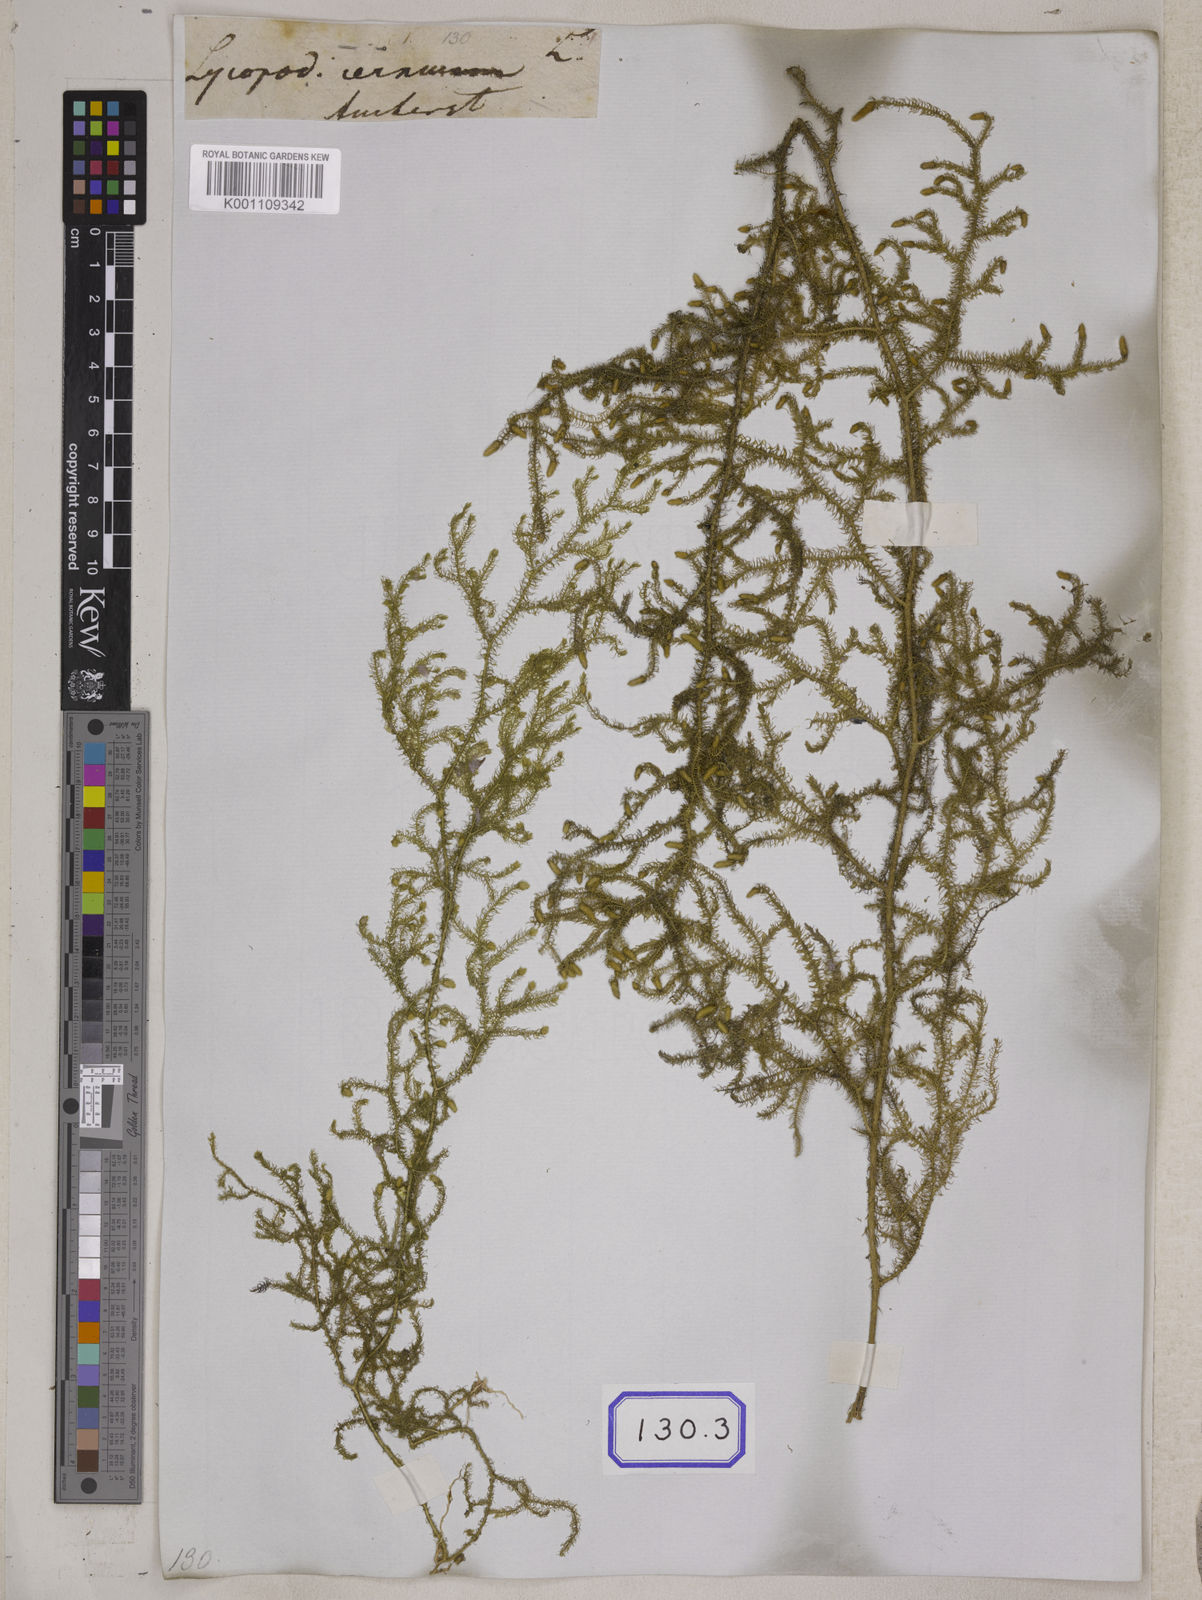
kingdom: Plantae
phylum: Tracheophyta
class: Lycopodiopsida
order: Lycopodiales
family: Lycopodiaceae
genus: Palhinhaea
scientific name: Palhinhaea cernua
